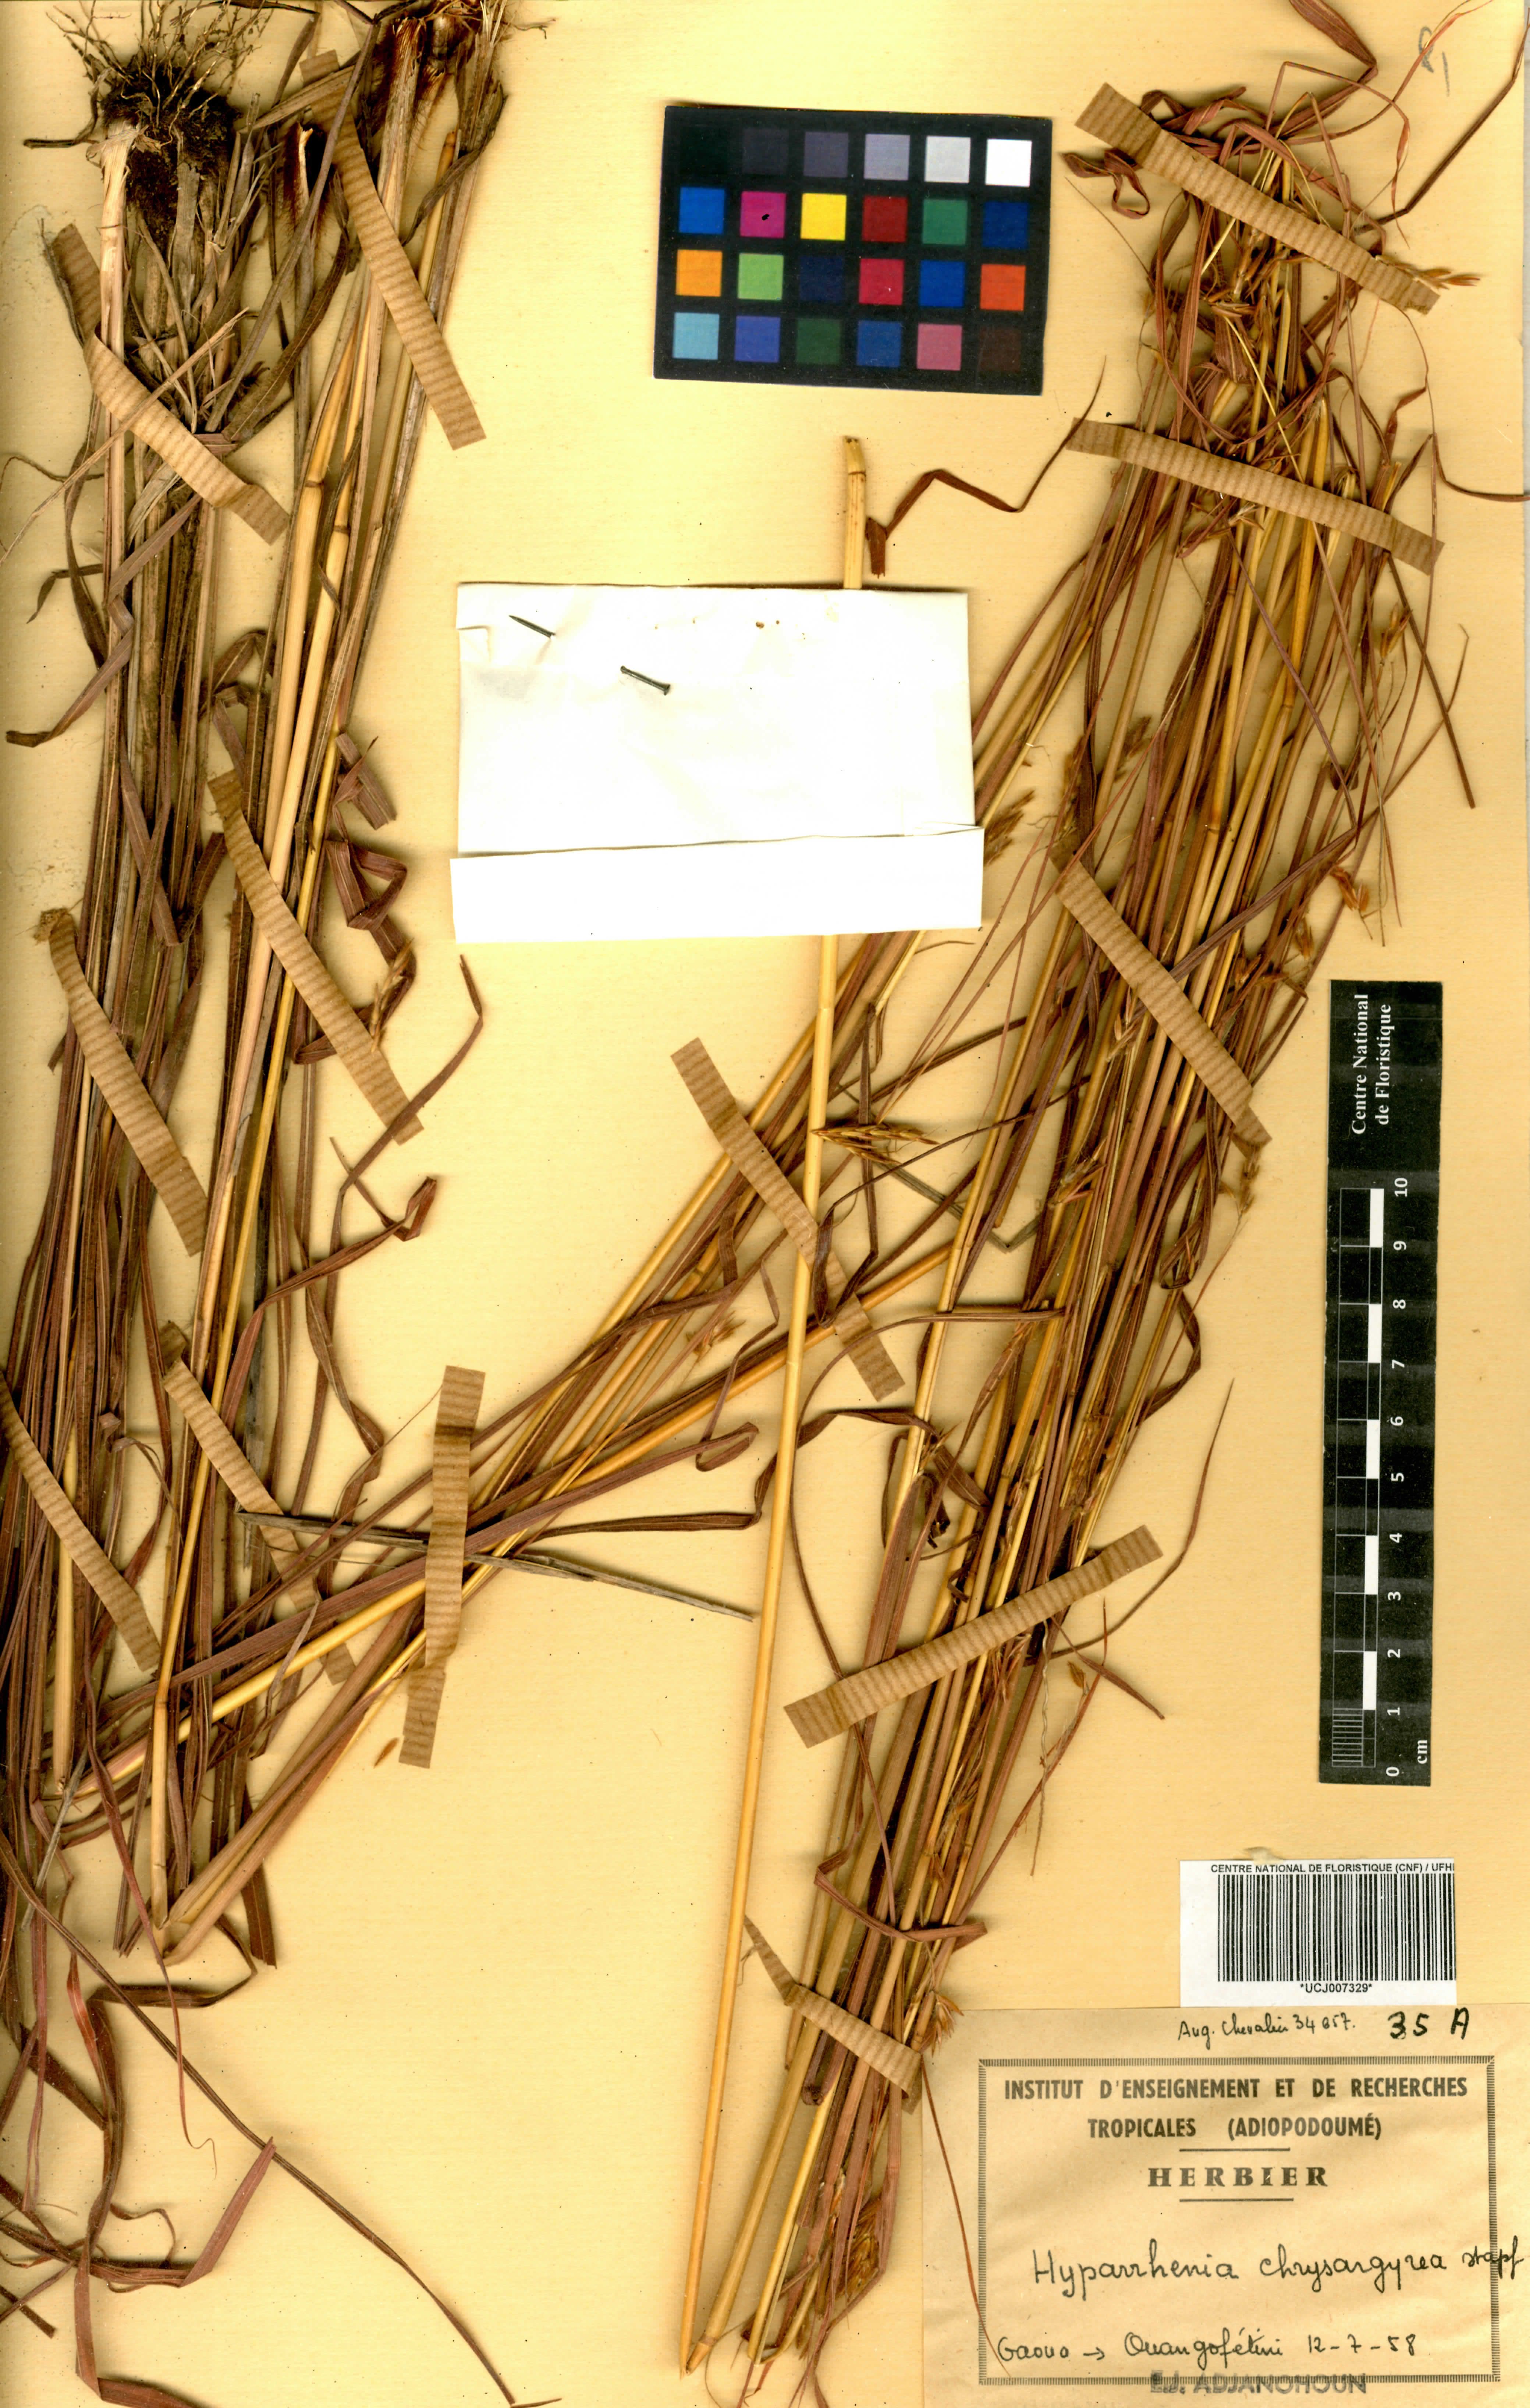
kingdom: Plantae
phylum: Tracheophyta
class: Liliopsida
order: Poales
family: Poaceae
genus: Hyparrhenia
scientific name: Hyparrhenia nyassae
